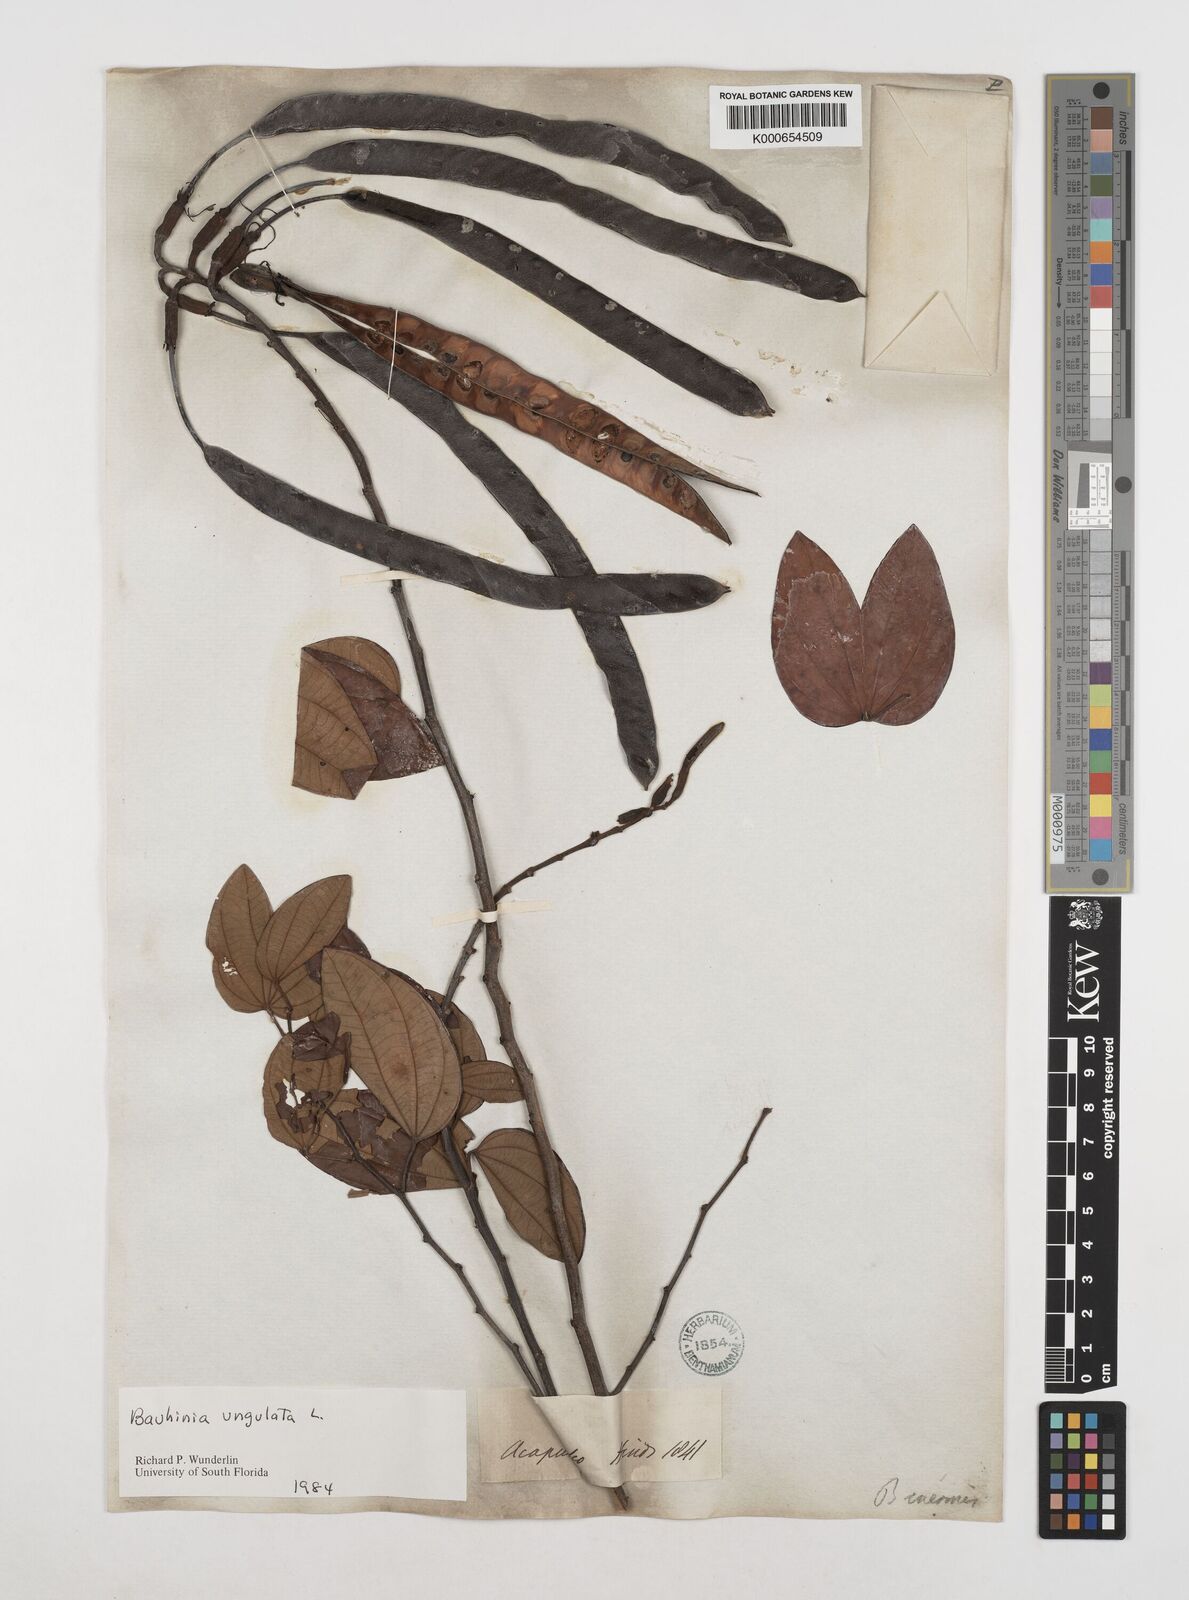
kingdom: Plantae
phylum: Tracheophyta
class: Magnoliopsida
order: Fabales
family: Fabaceae
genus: Bauhinia
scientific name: Bauhinia ungulata
